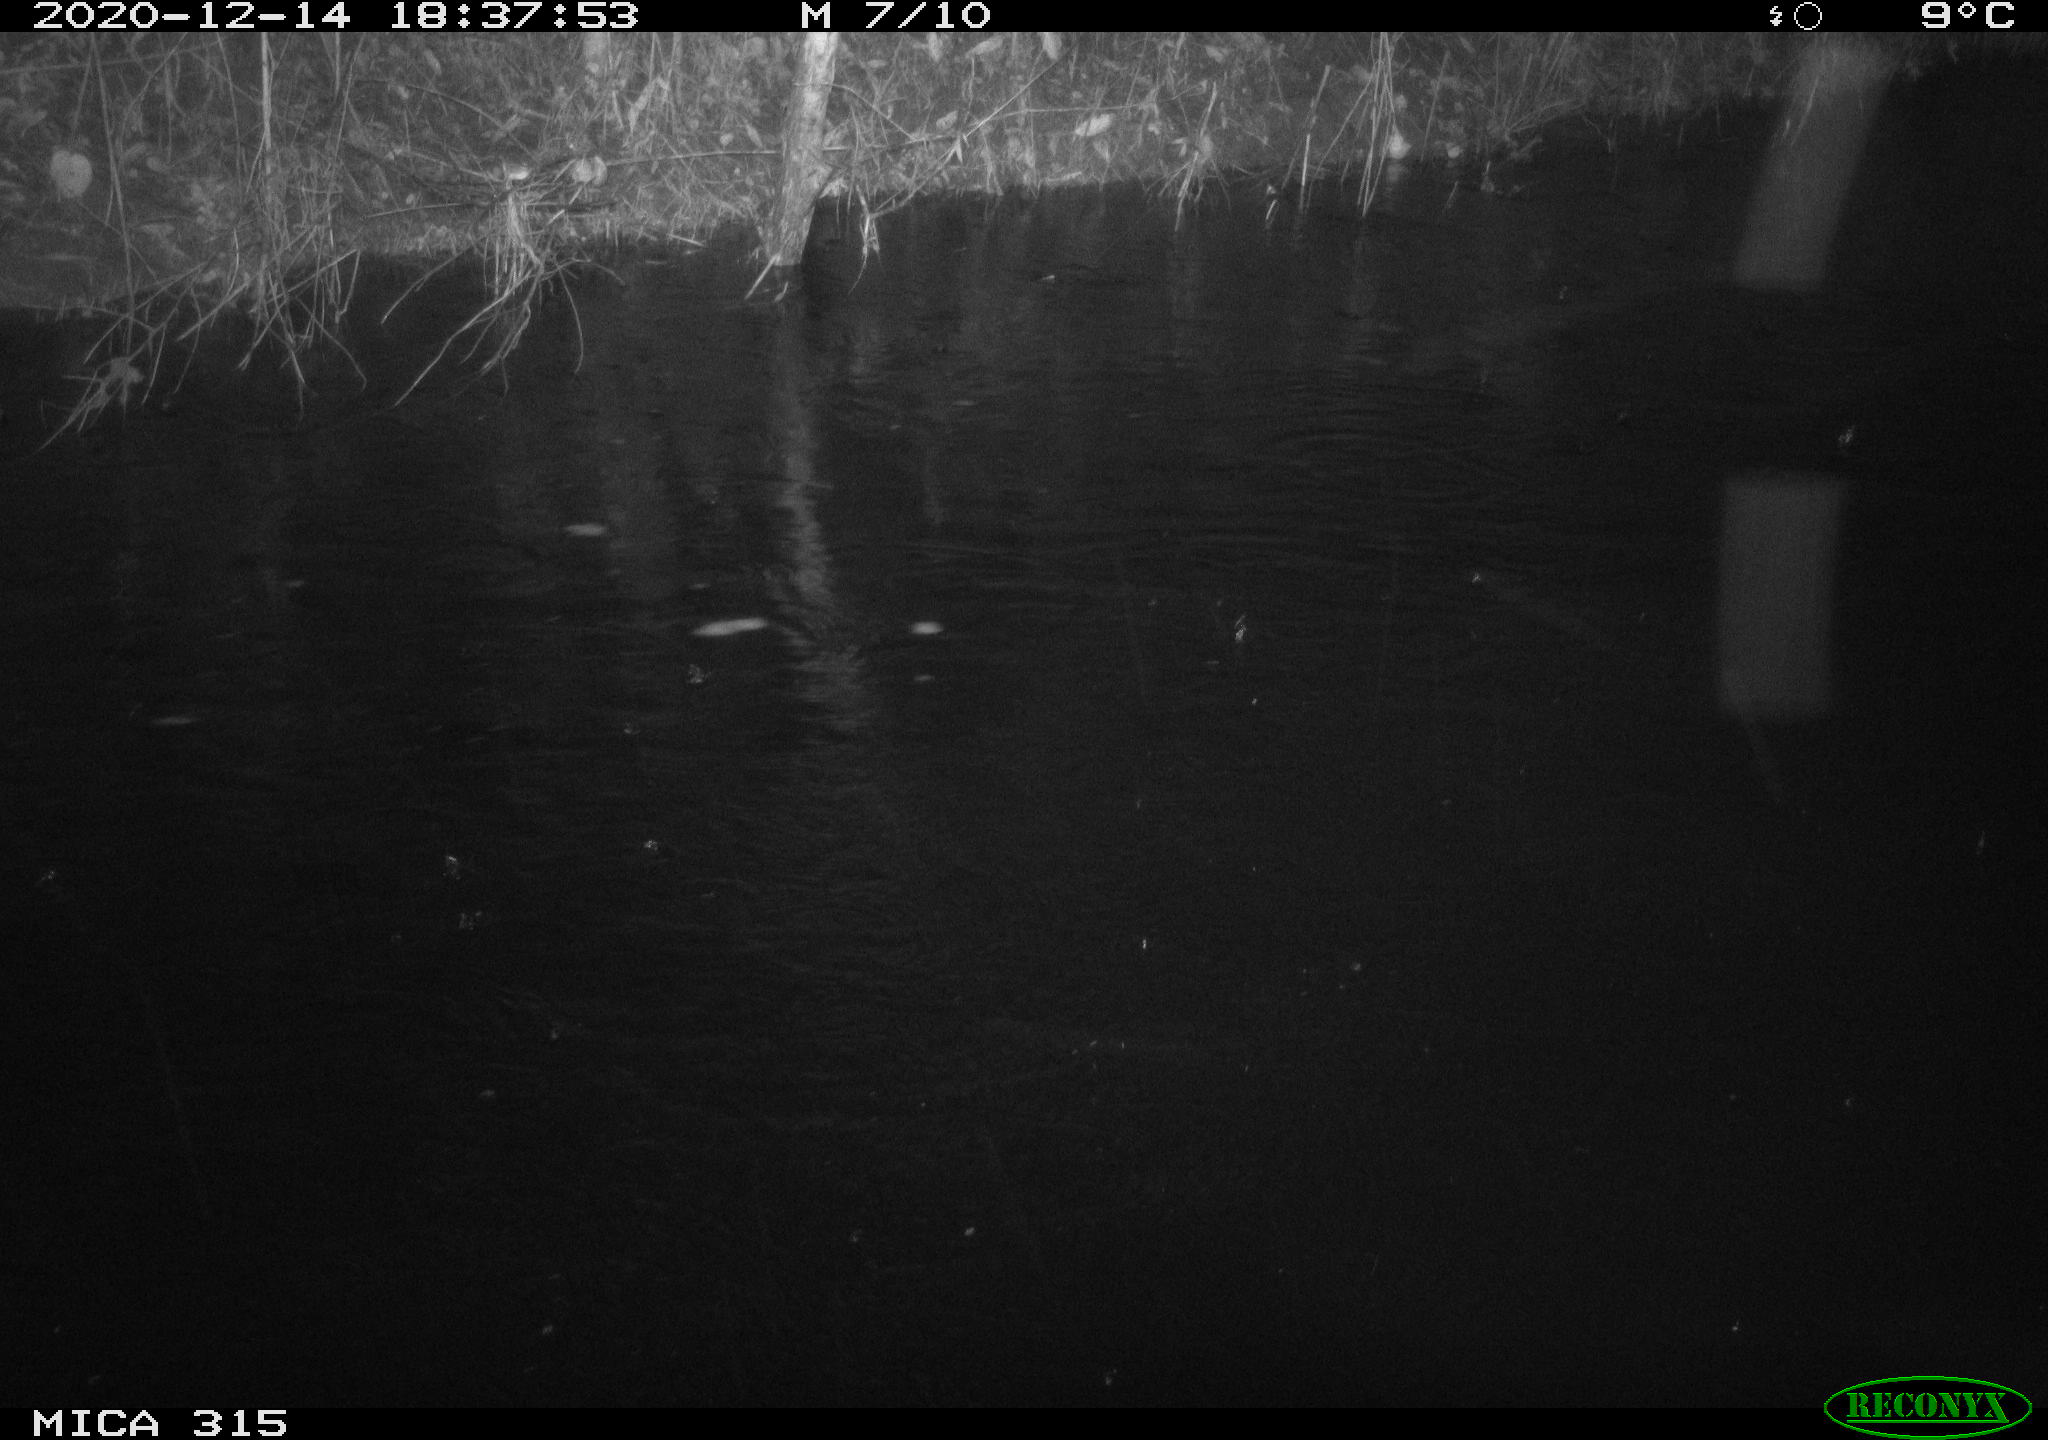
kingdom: Animalia
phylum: Chordata
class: Aves
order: Anseriformes
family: Anatidae
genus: Anas
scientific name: Anas platyrhynchos
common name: Mallard
